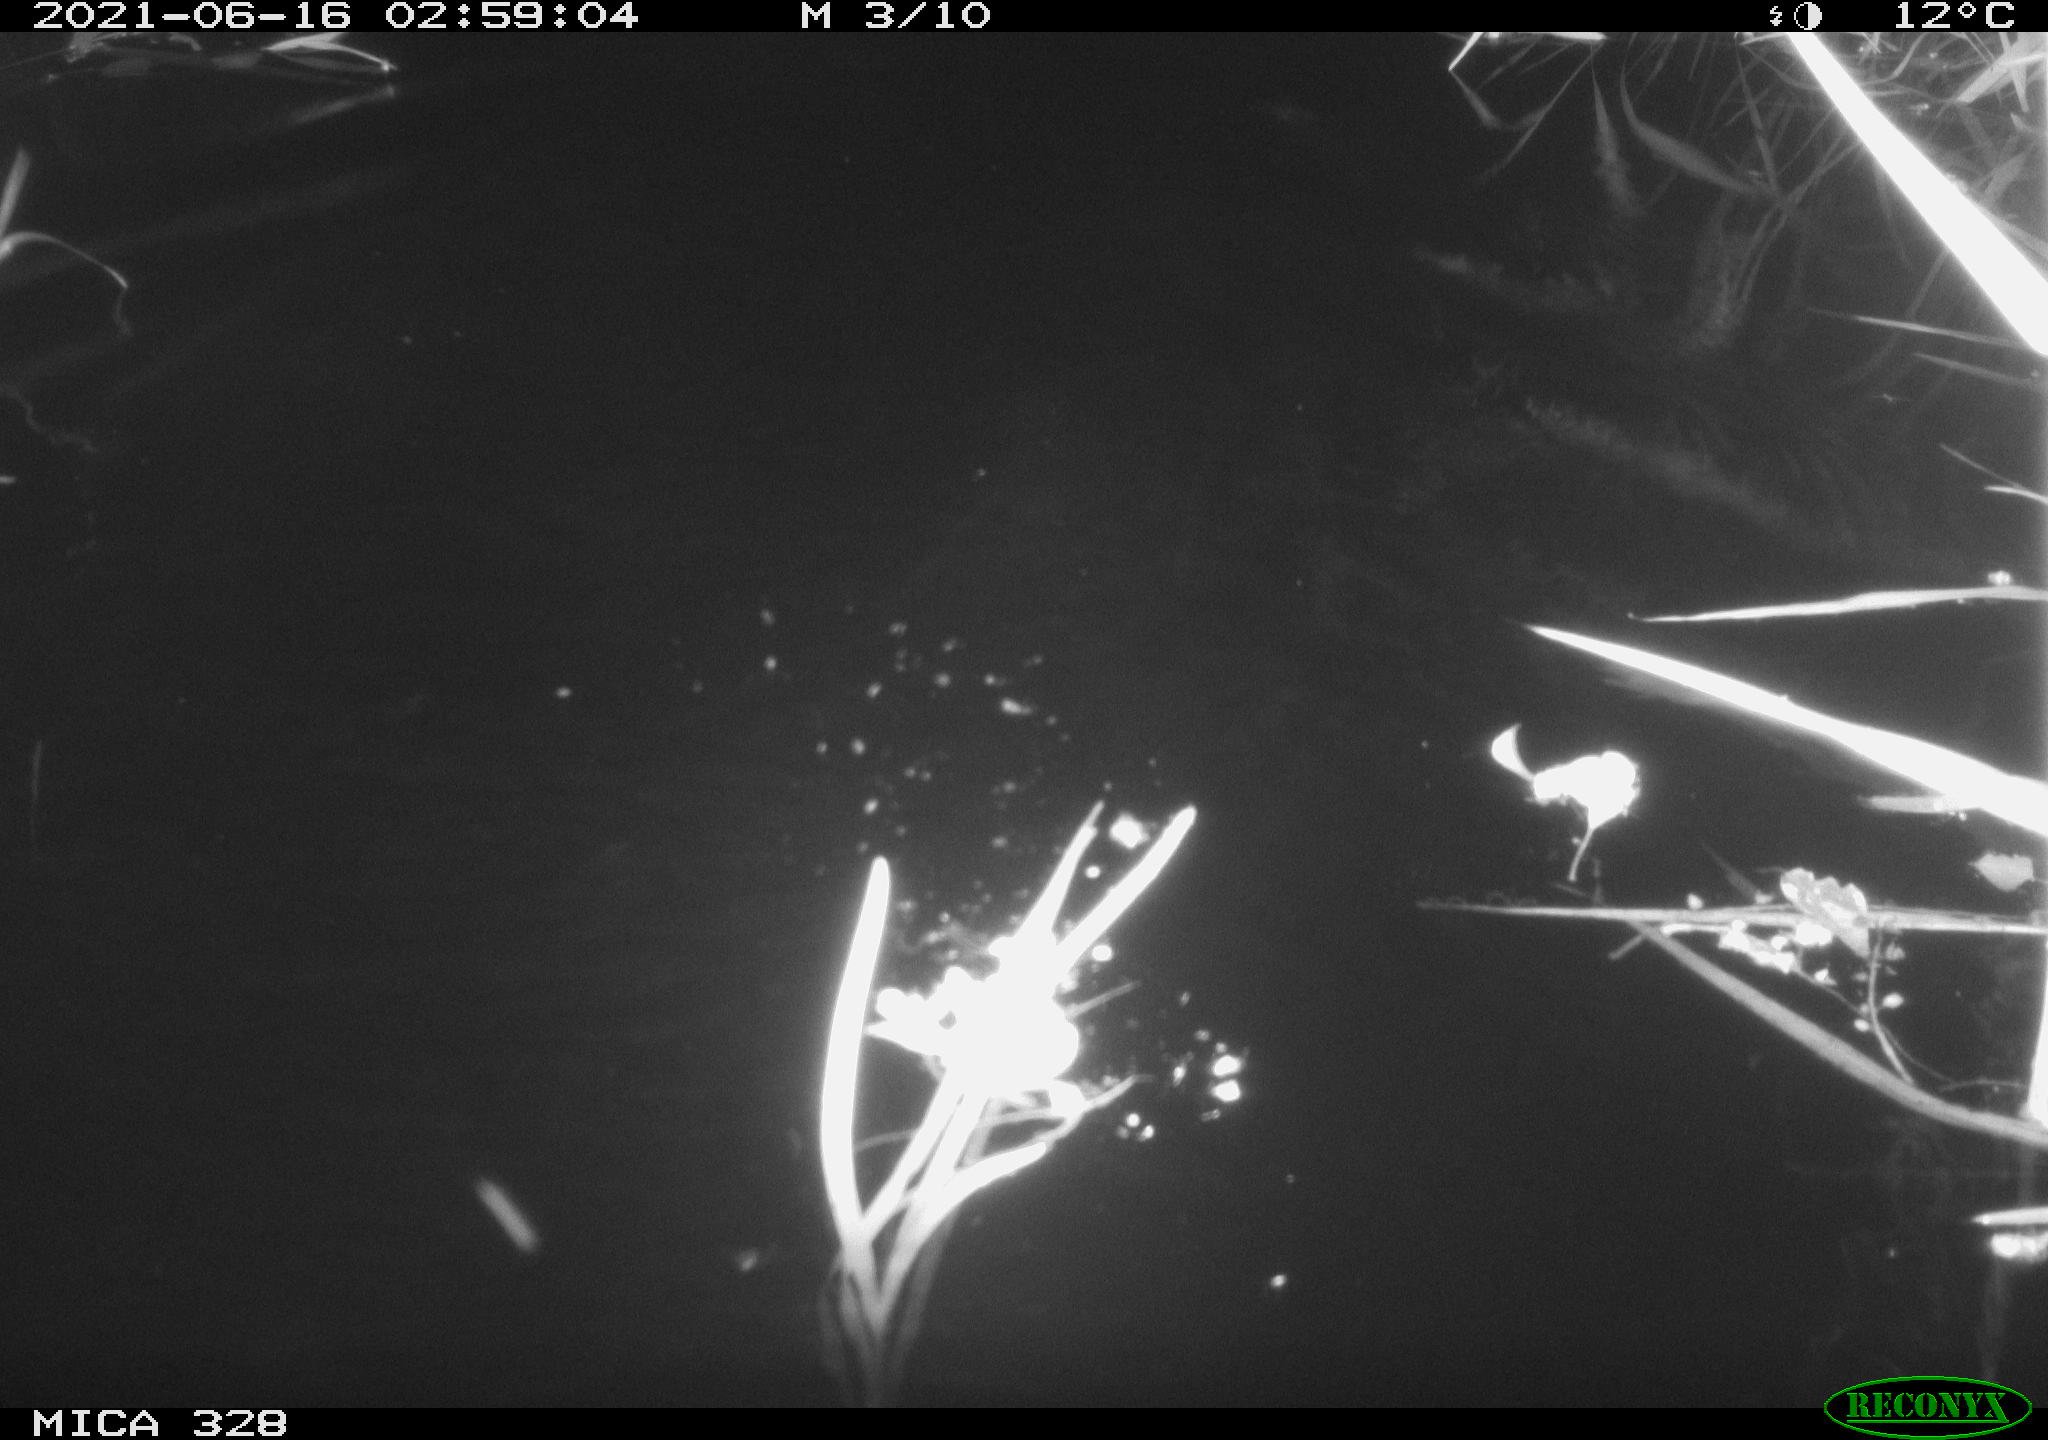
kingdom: Animalia
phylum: Chordata
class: Mammalia
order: Rodentia
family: Cricetidae
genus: Ondatra
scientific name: Ondatra zibethicus
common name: Muskrat
